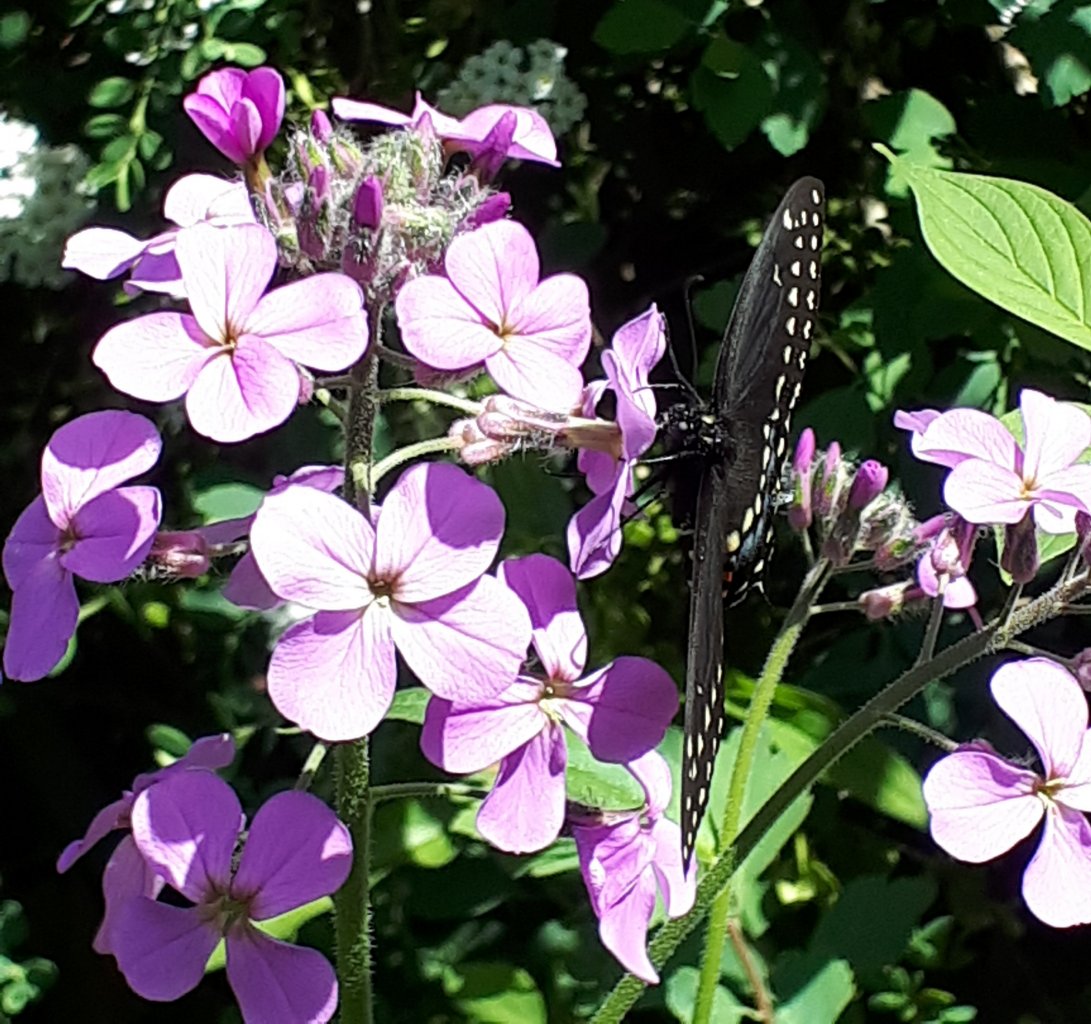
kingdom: Animalia
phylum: Arthropoda
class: Insecta
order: Lepidoptera
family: Papilionidae
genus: Papilio
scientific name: Papilio polyxenes
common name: Black Swallowtail
